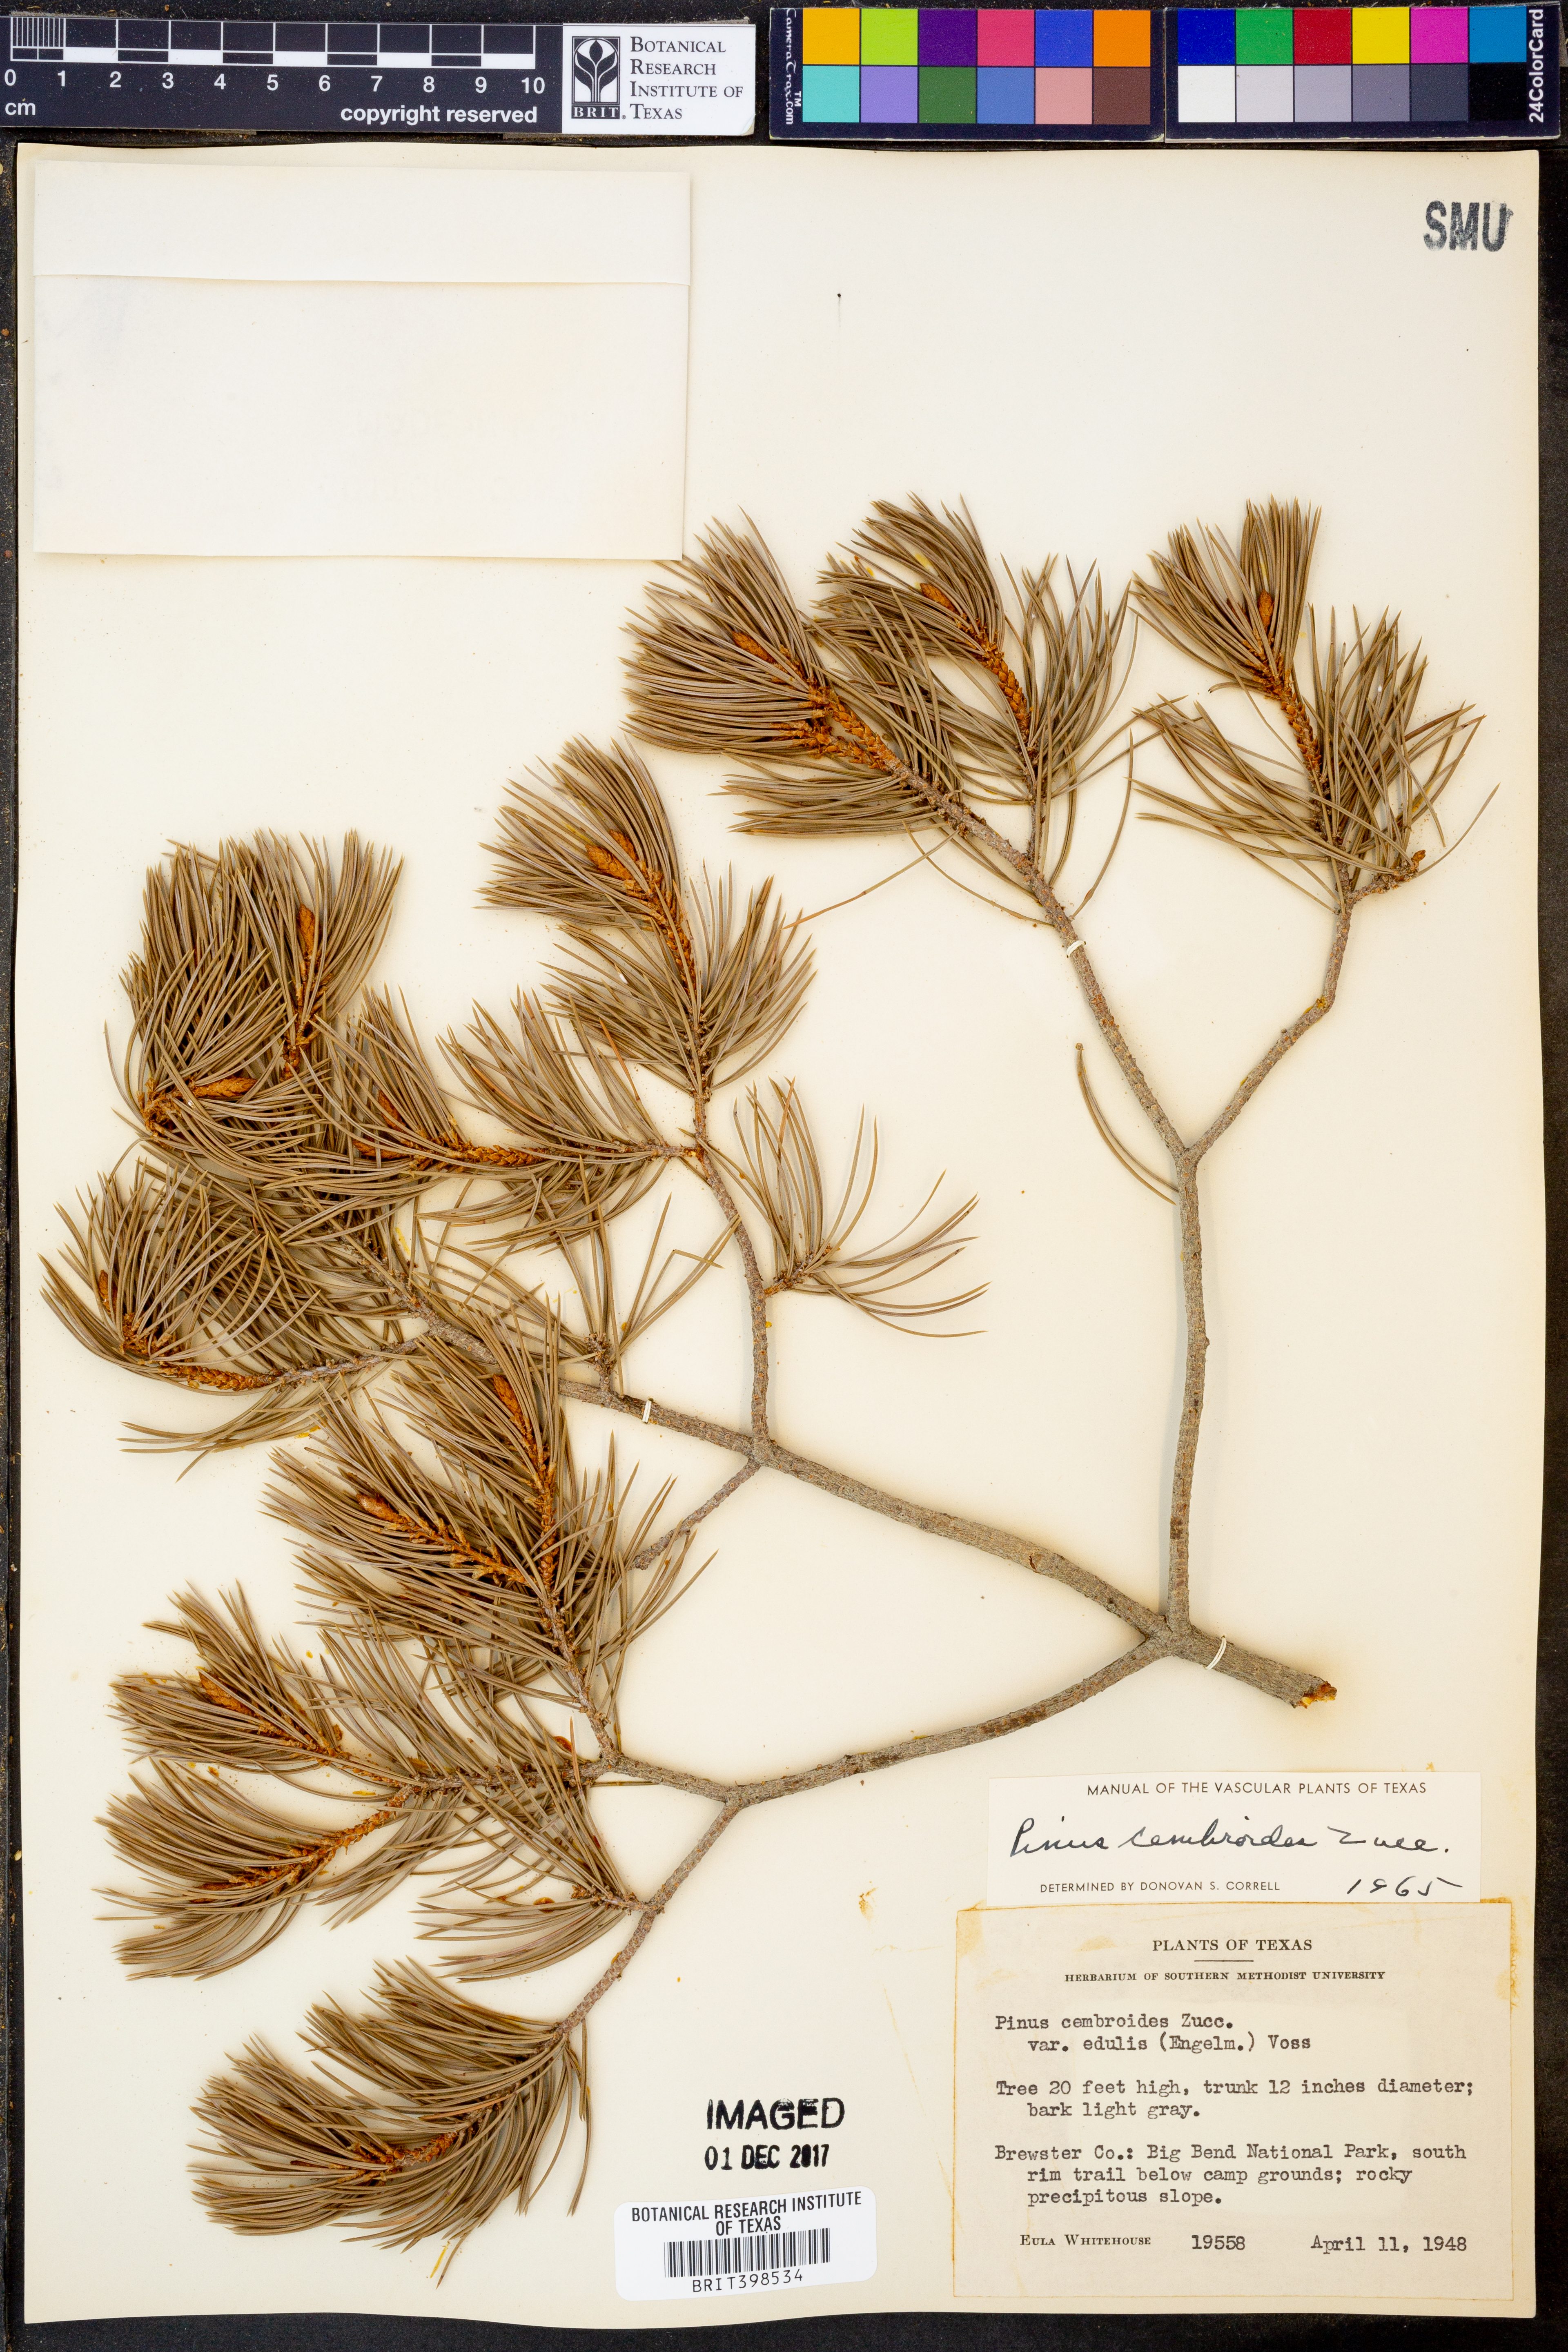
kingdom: Plantae
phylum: Tracheophyta
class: Pinopsida
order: Pinales
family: Pinaceae
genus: Pinus
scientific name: Pinus cembroides
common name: Mexican nut pine
